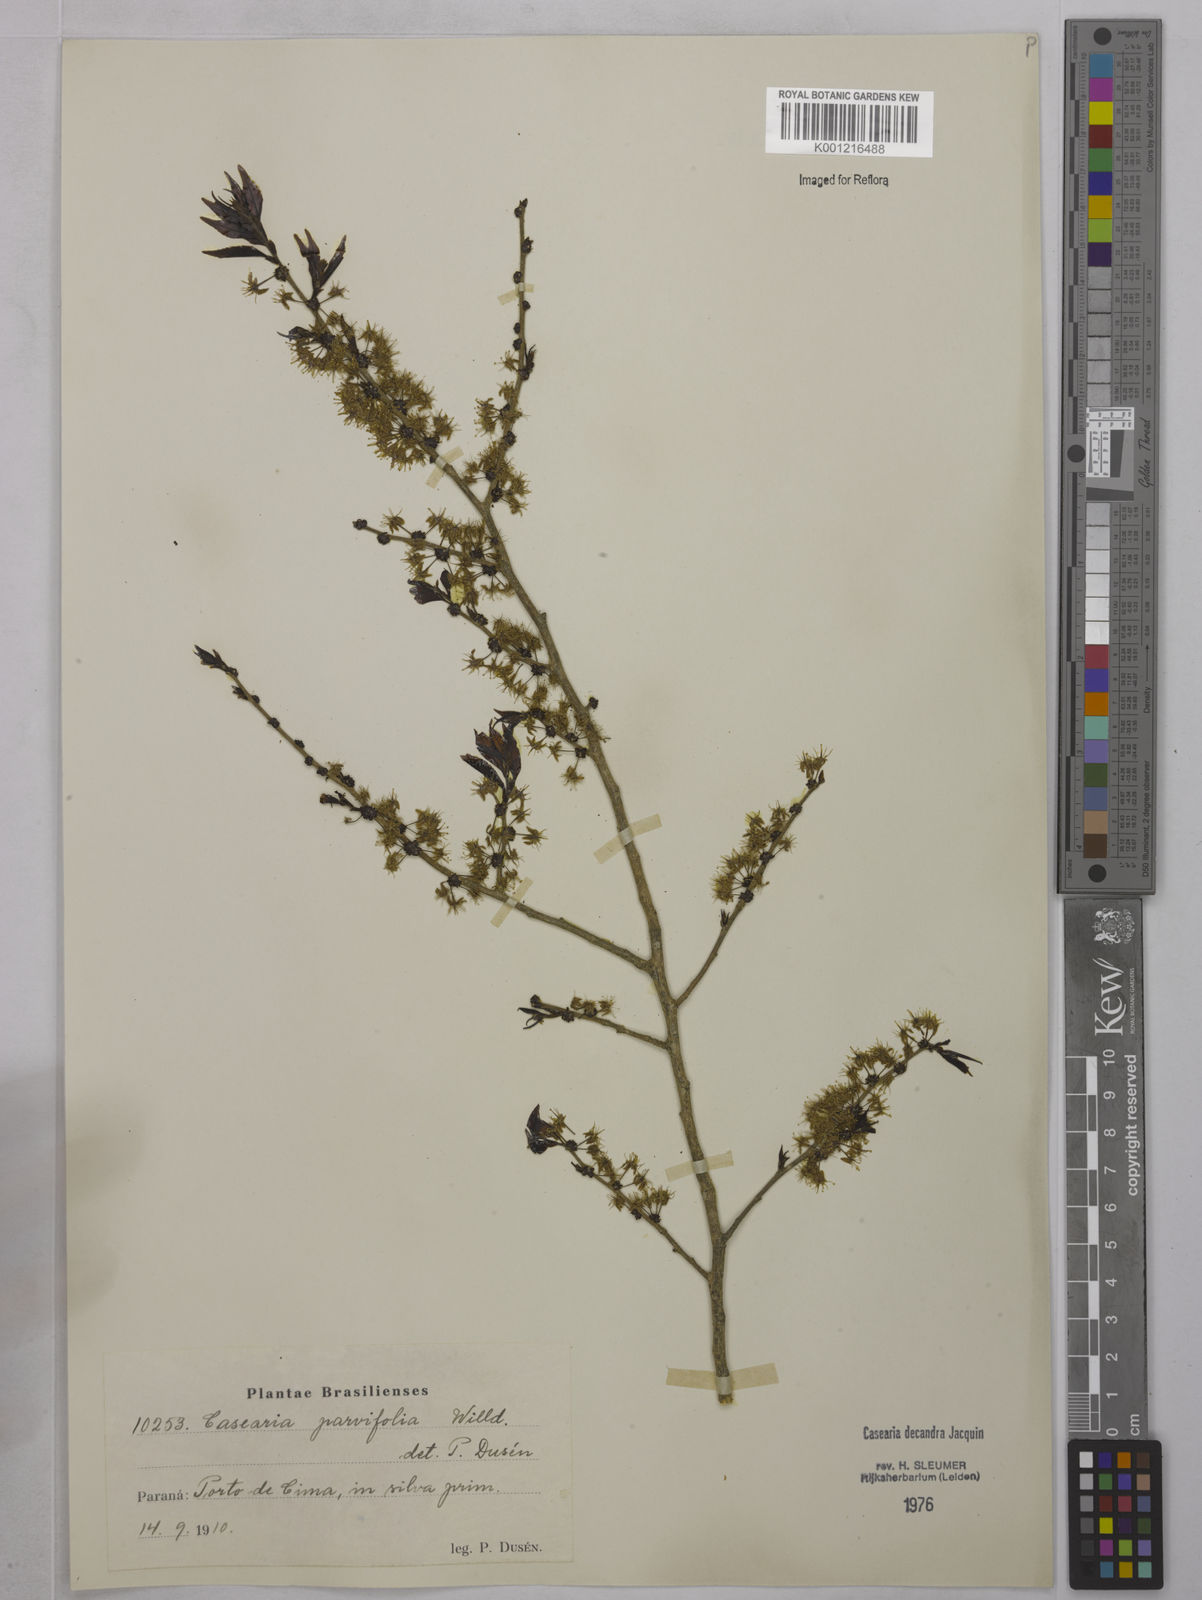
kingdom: Plantae
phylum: Tracheophyta
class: Magnoliopsida
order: Malpighiales
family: Salicaceae
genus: Casearia
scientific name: Casearia decandra
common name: Crack open
